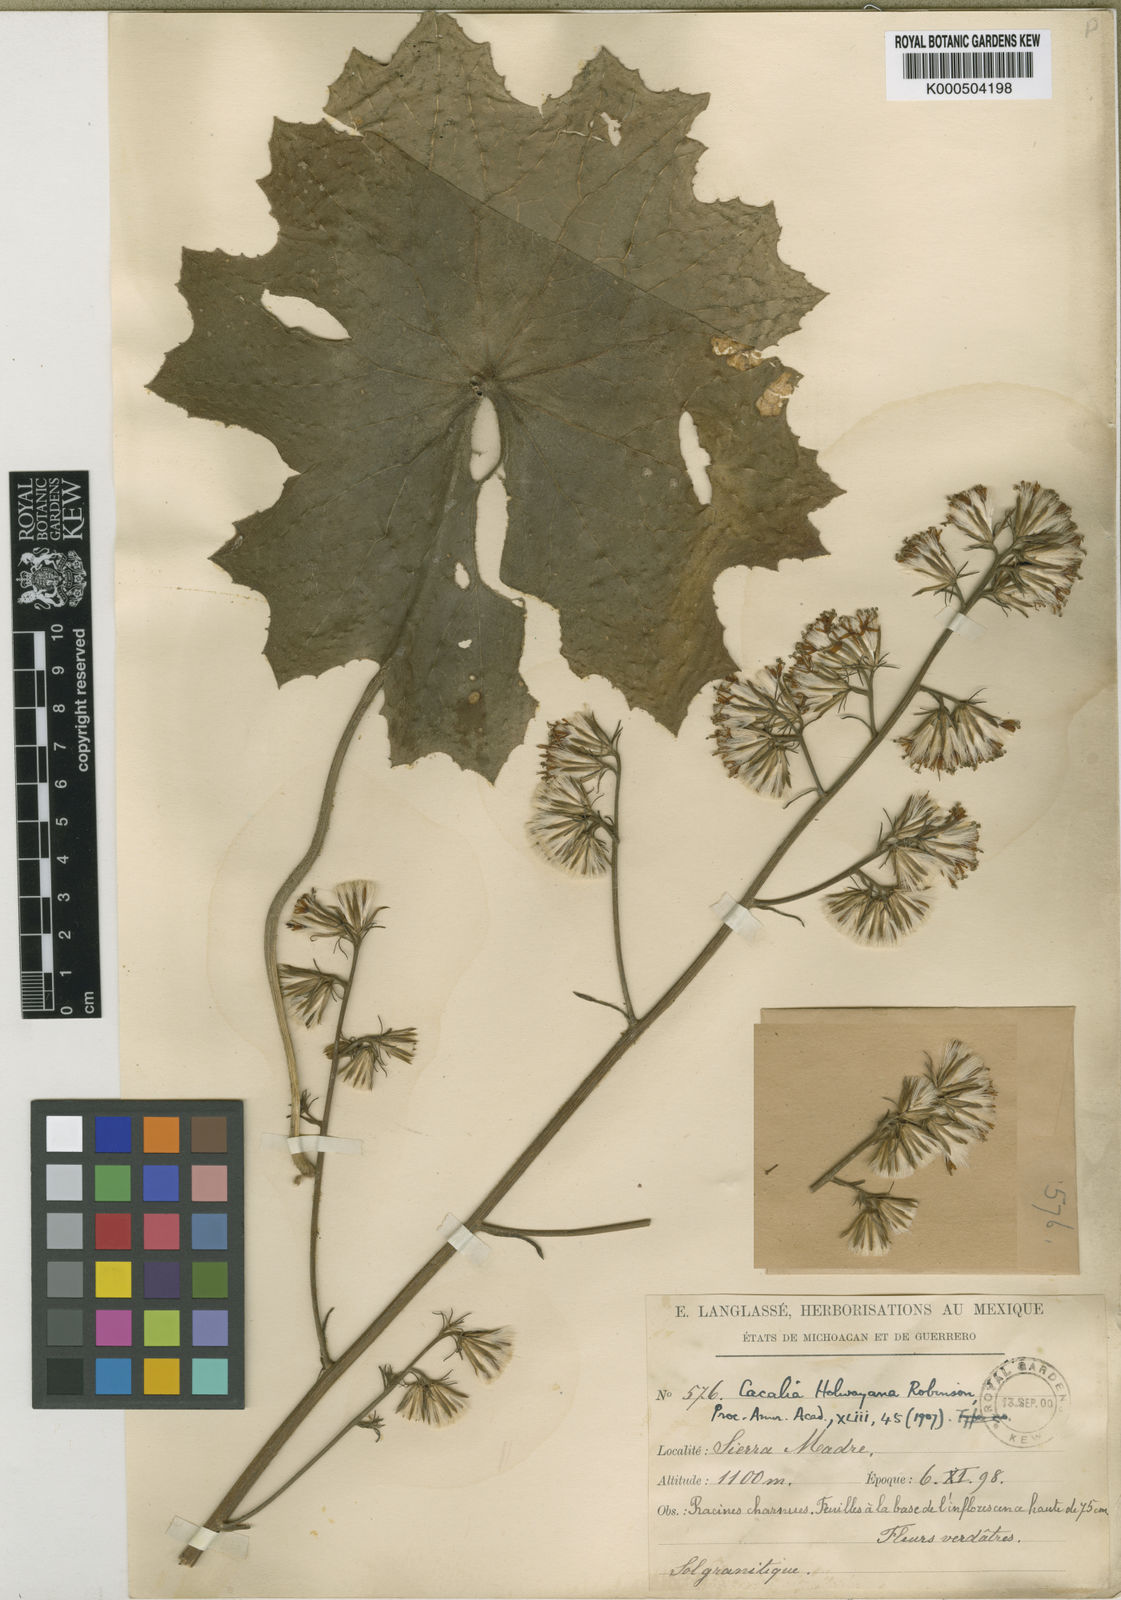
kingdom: Plantae
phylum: Tracheophyta
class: Magnoliopsida
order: Asterales
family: Asteraceae
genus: Psacalium
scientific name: Psacalium holwayanum
